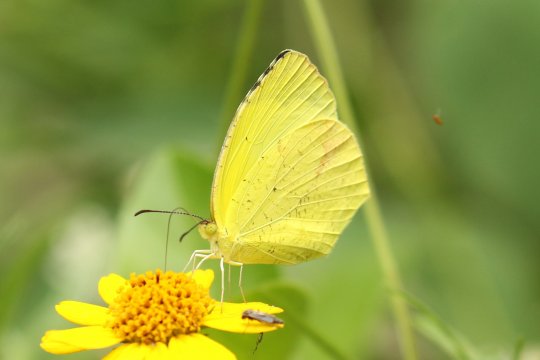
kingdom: Animalia
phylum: Arthropoda
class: Insecta
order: Lepidoptera
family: Pieridae
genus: Eurema
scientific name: Eurema boisduvaliana
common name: Boisduval's Yellow
